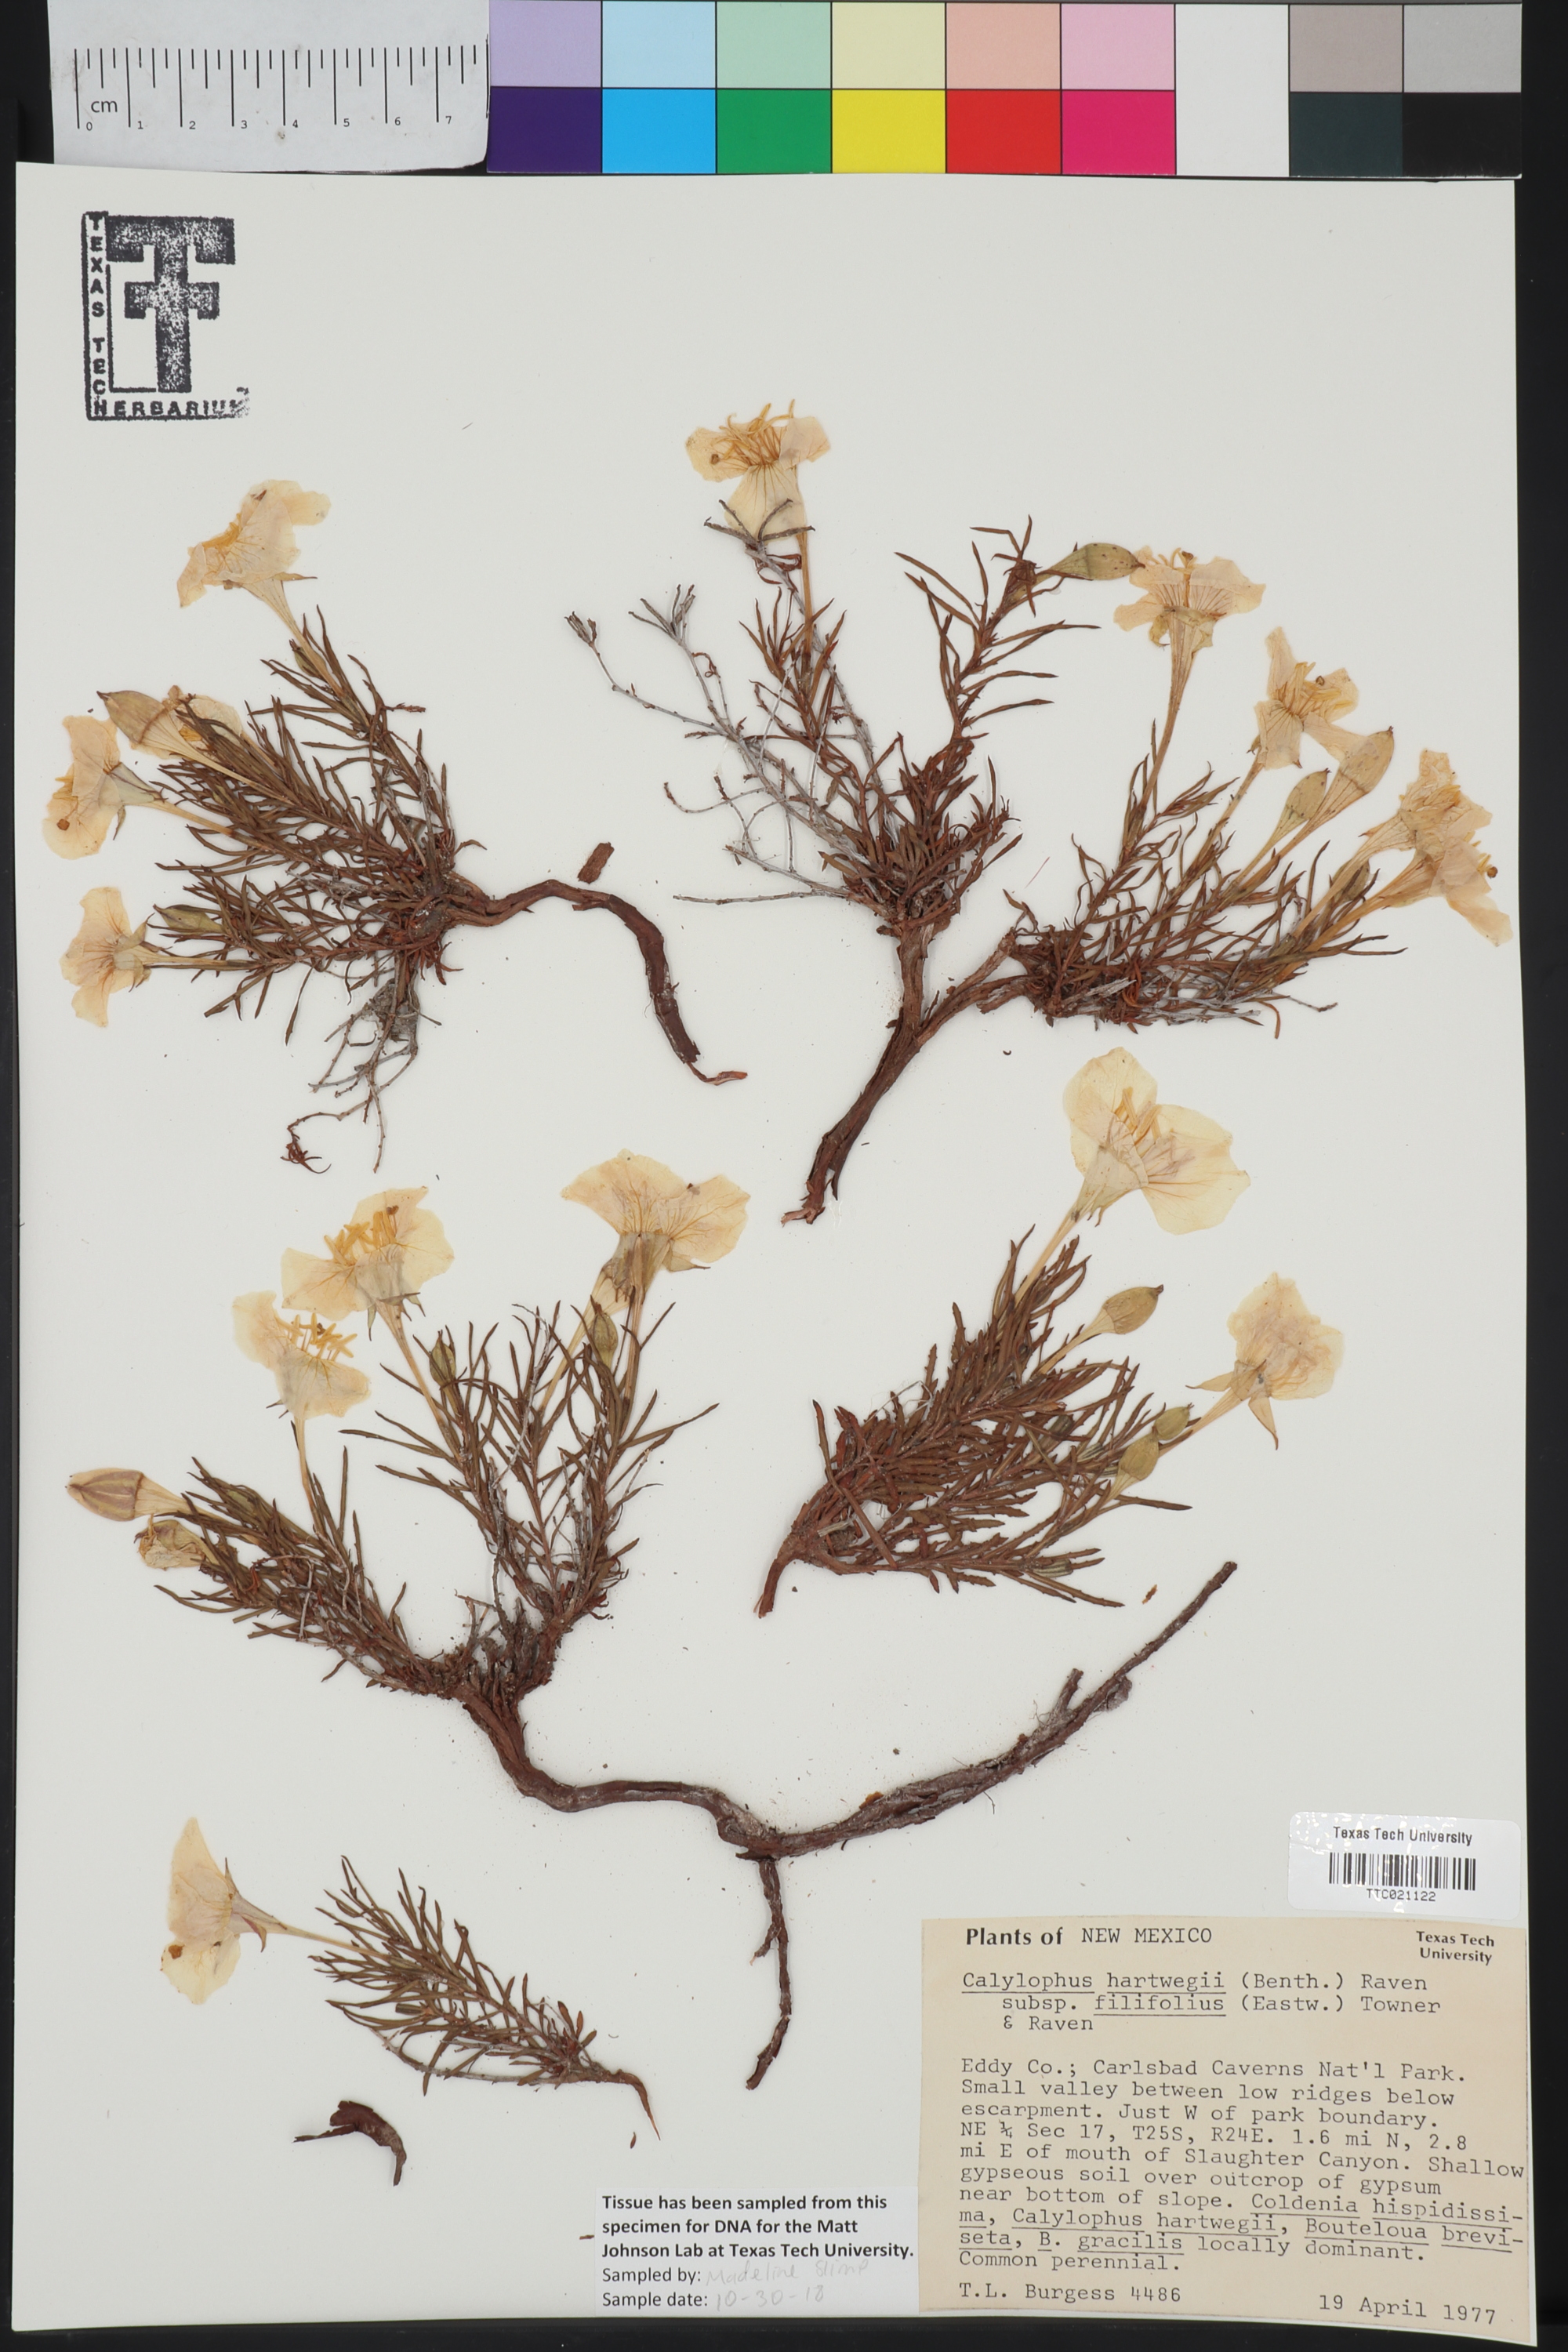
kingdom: Plantae
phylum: Tracheophyta
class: Magnoliopsida
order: Myrtales
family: Onagraceae
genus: Oenothera
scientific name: Oenothera hartwegii
